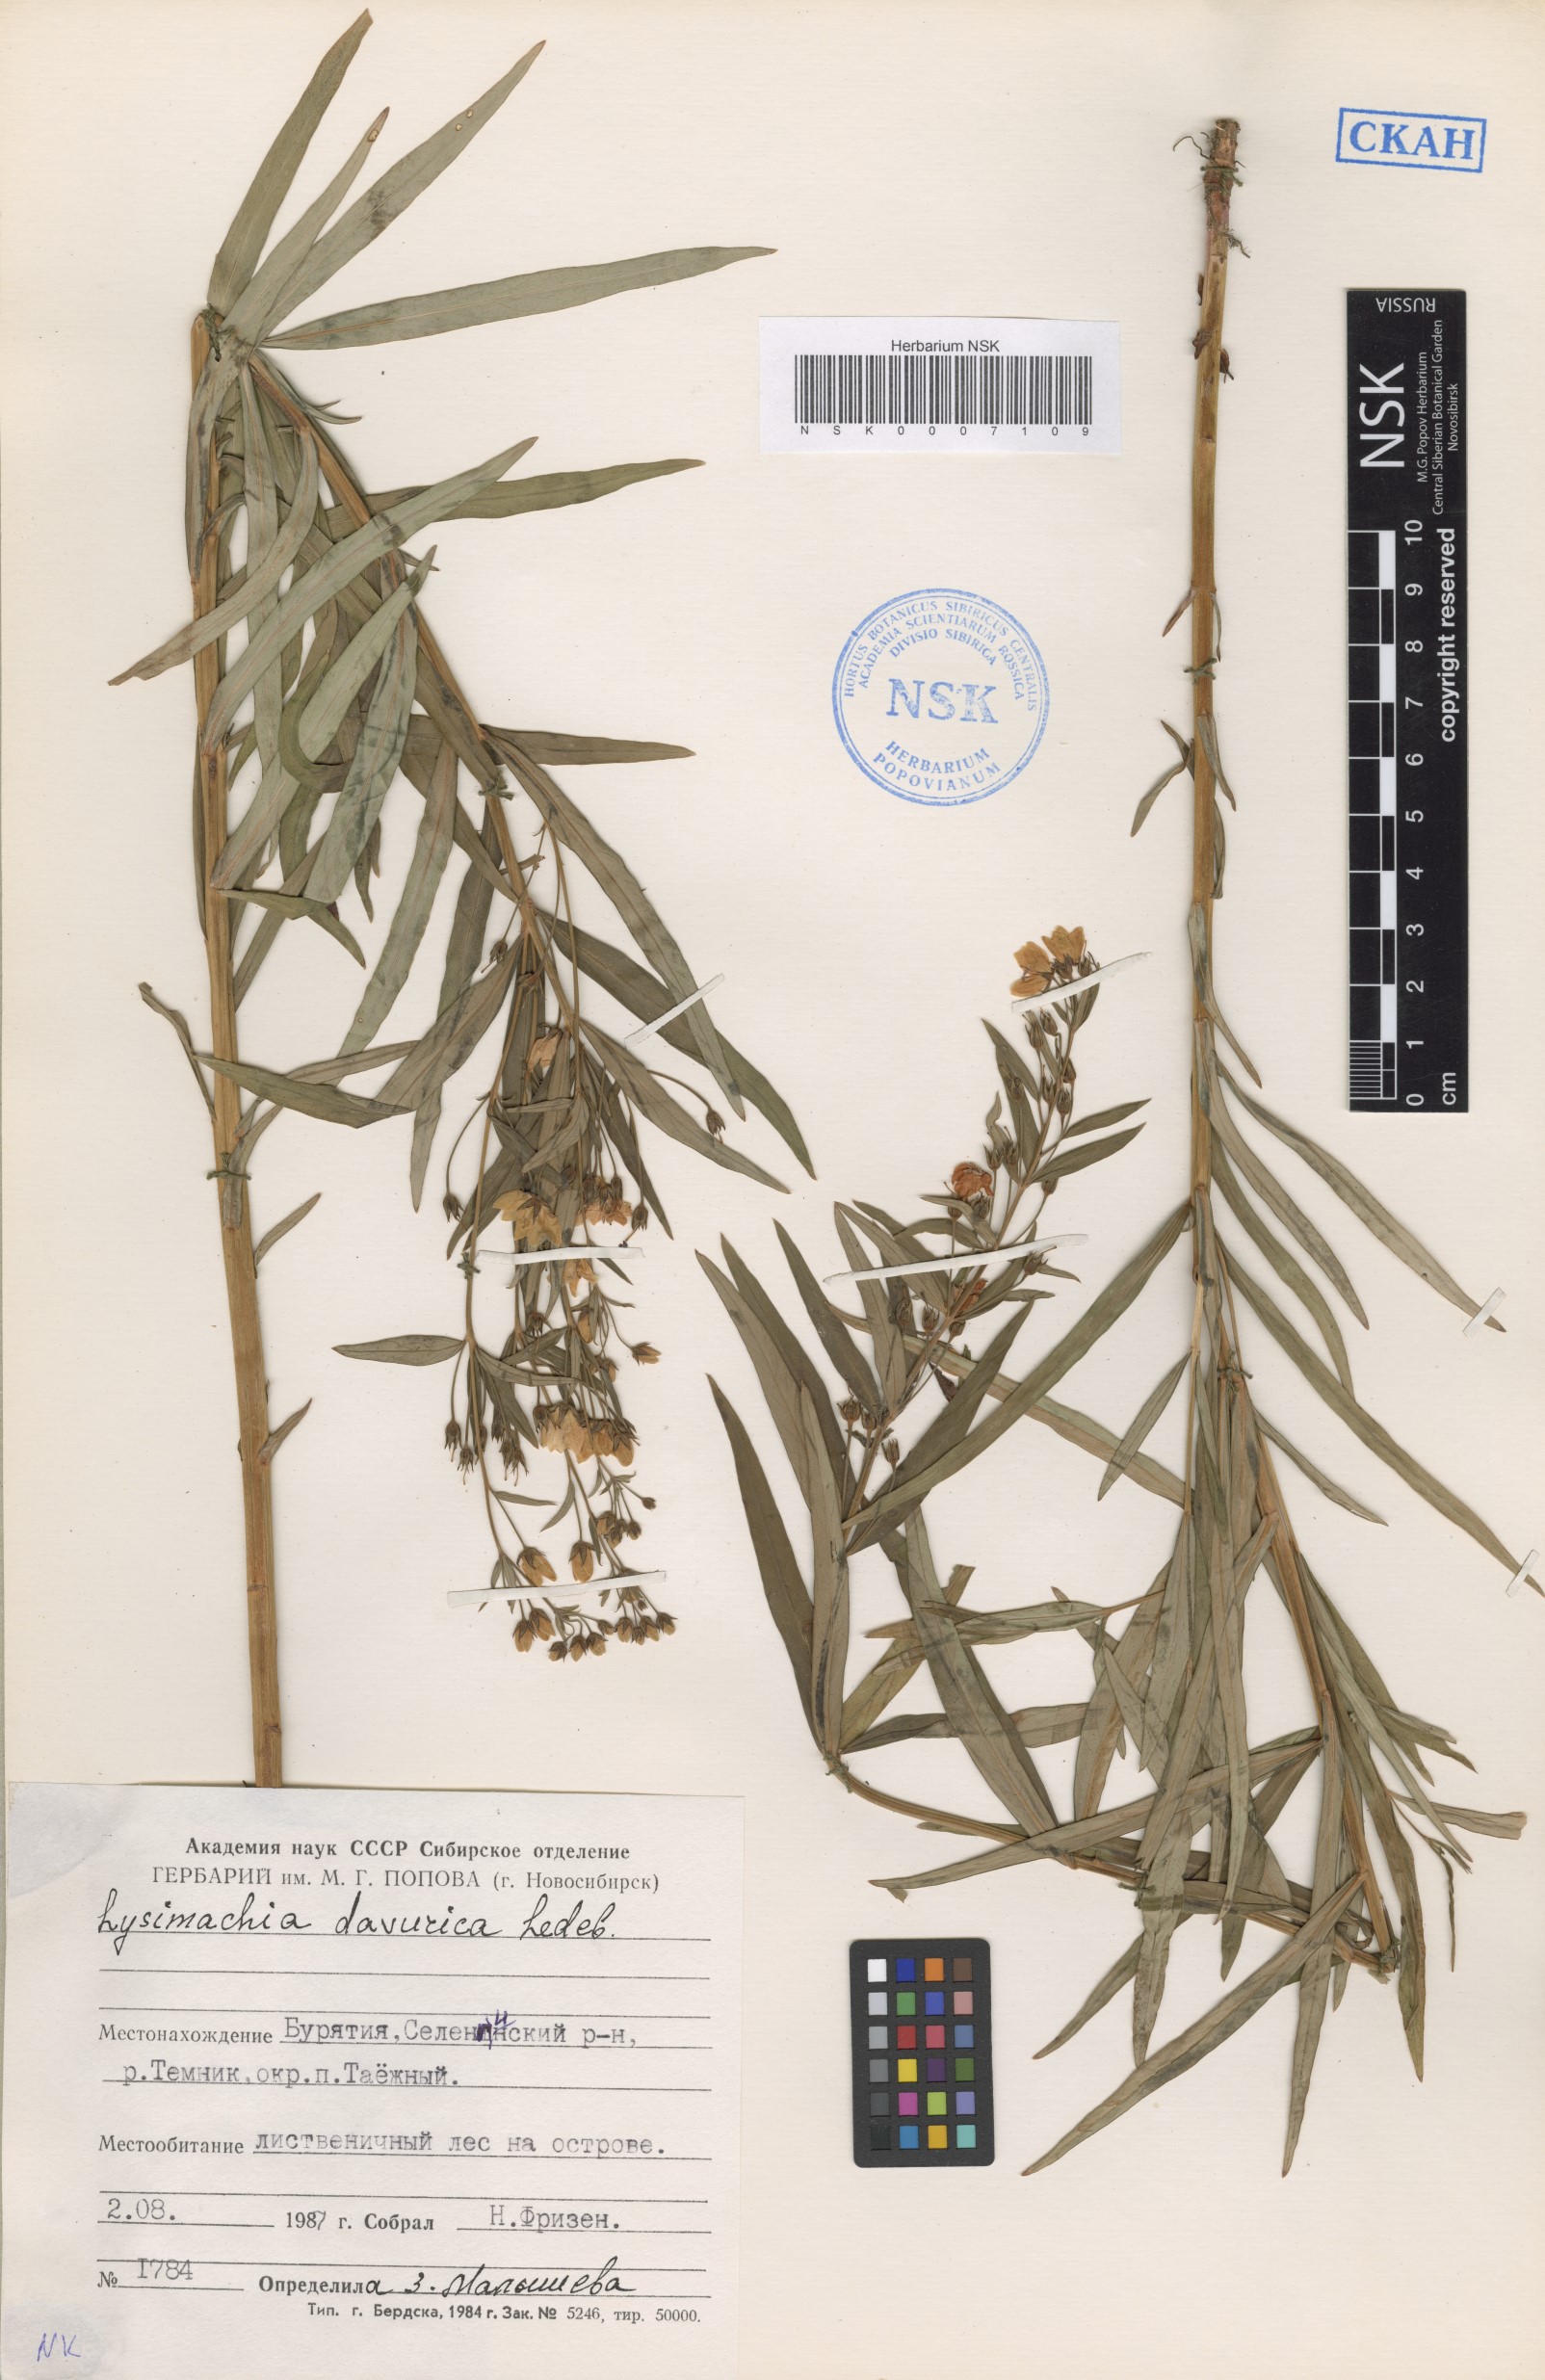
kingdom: Plantae
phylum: Tracheophyta
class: Magnoliopsida
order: Ericales
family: Primulaceae
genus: Lysimachia
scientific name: Lysimachia davurica
